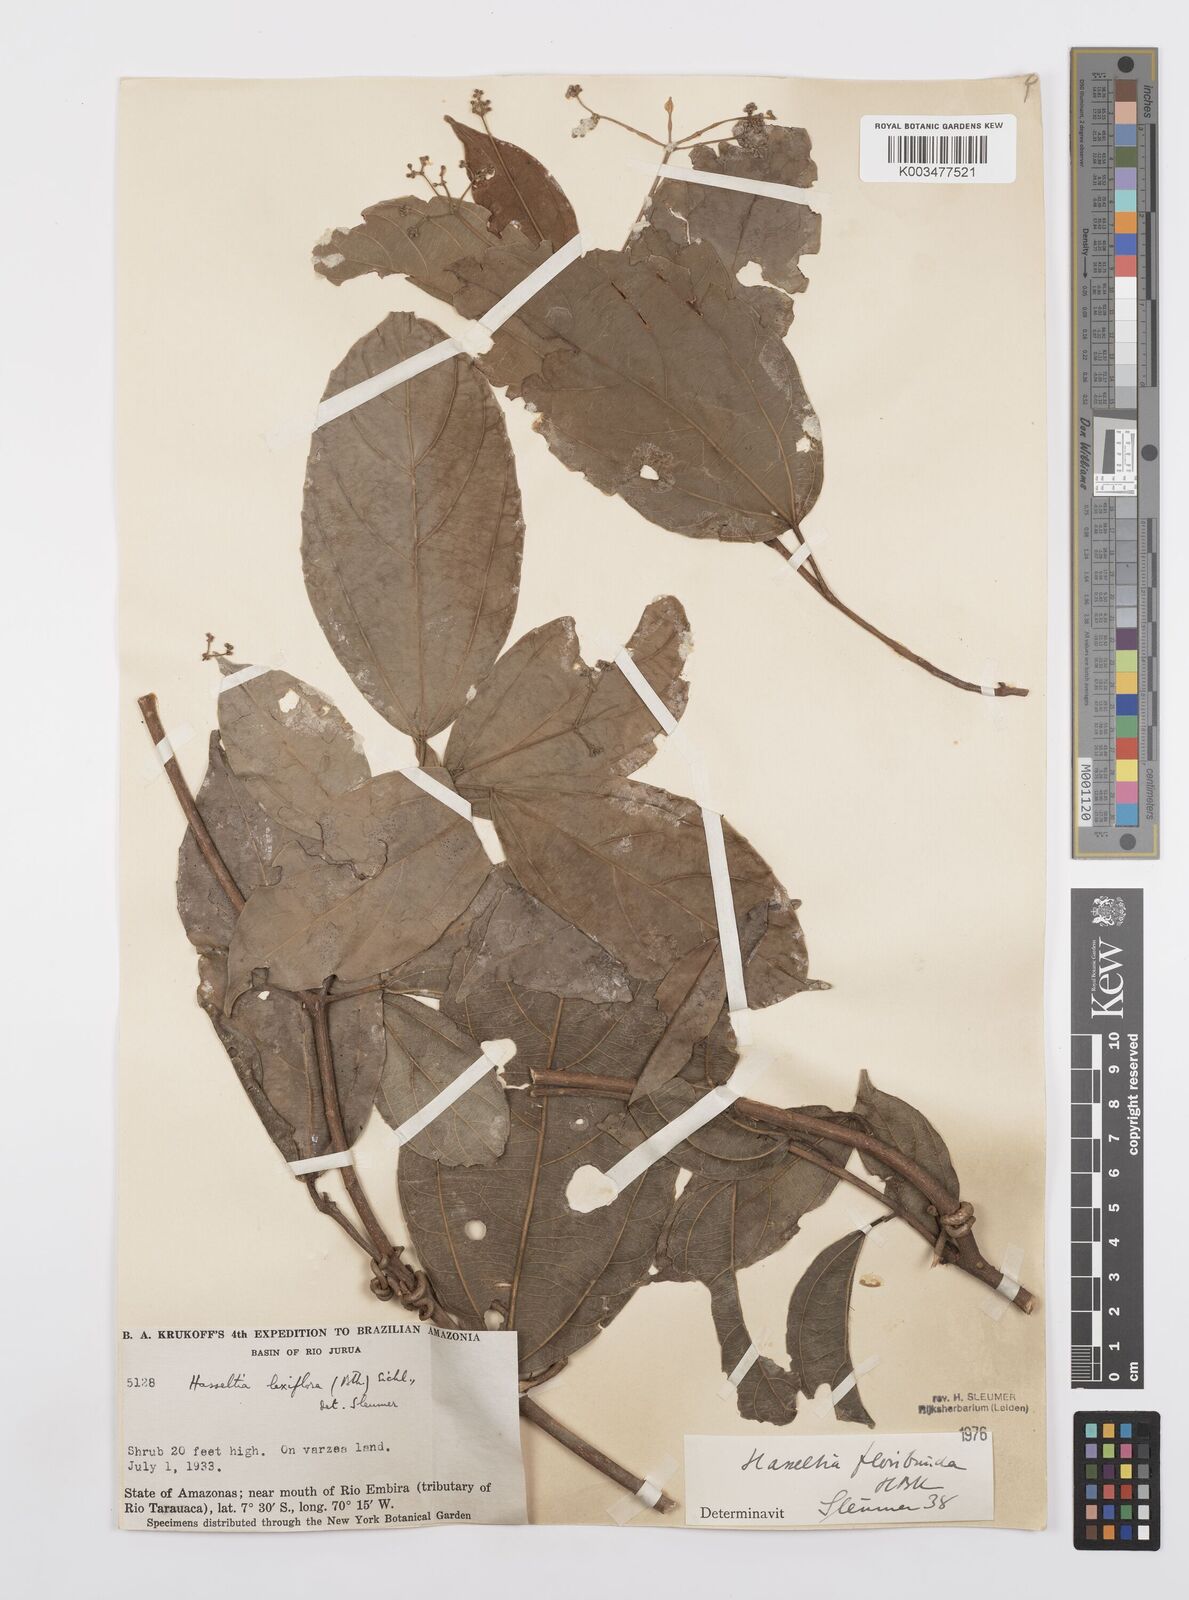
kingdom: Plantae
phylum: Tracheophyta
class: Magnoliopsida
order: Malpighiales
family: Salicaceae
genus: Hasseltia
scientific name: Hasseltia floribunda
